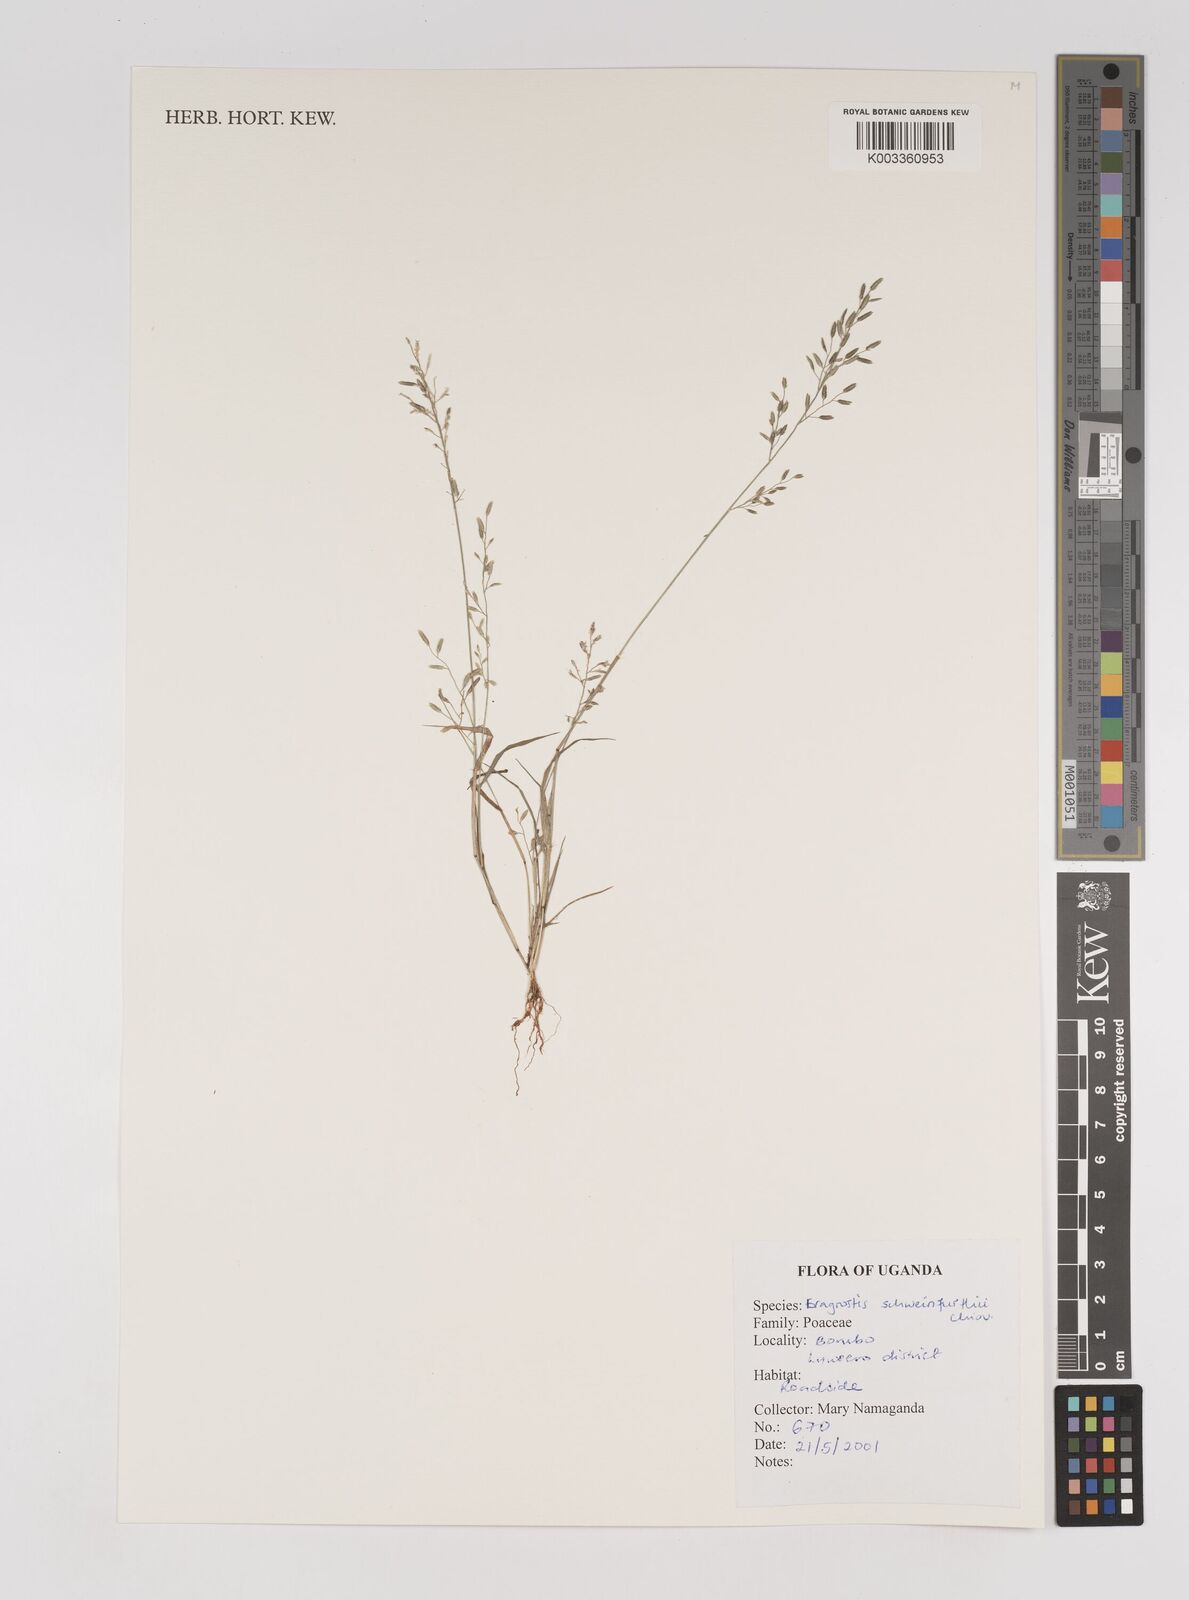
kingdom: Plantae
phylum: Tracheophyta
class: Liliopsida
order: Poales
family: Poaceae
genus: Eragrostis
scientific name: Eragrostis schweinfurthii
